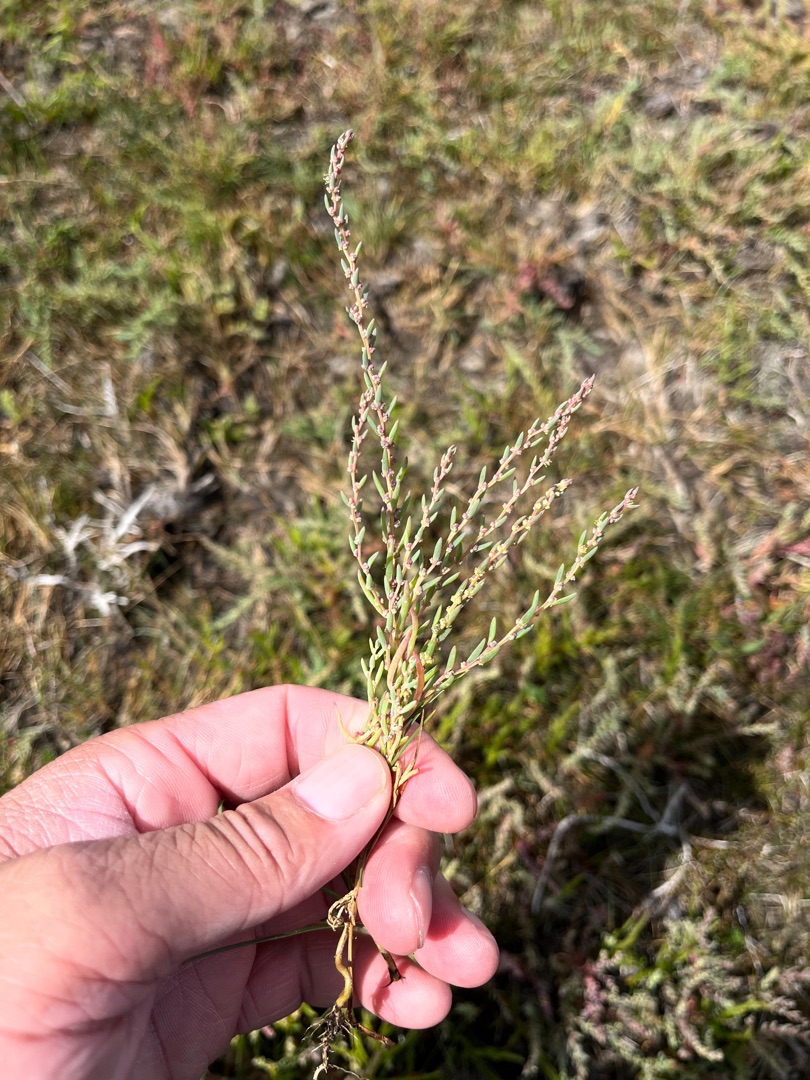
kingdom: Plantae
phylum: Tracheophyta
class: Magnoliopsida
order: Caryophyllales
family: Amaranthaceae
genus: Suaeda
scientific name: Suaeda maritima
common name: Strandgåsefod
